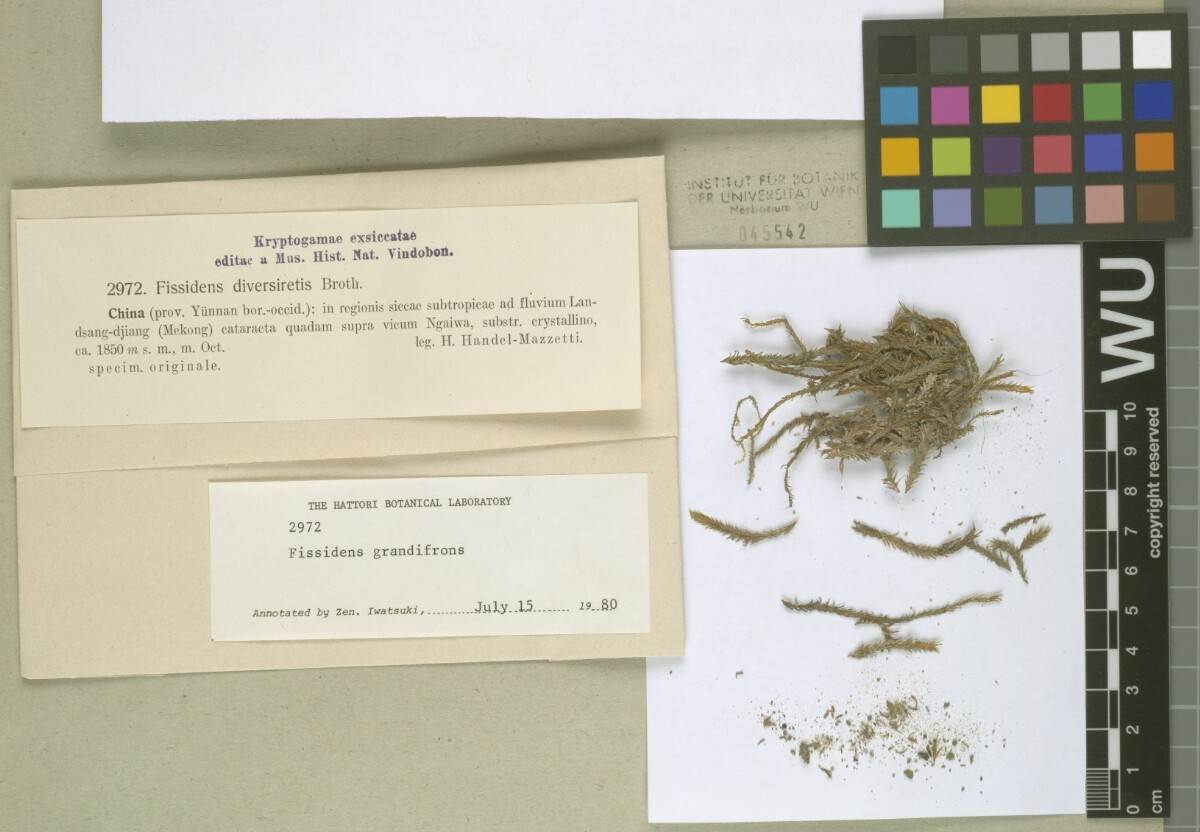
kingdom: Plantae
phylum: Bryophyta
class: Bryopsida
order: Dicranales
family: Fissidentaceae
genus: Fissidens
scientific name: Fissidens grandifrons
